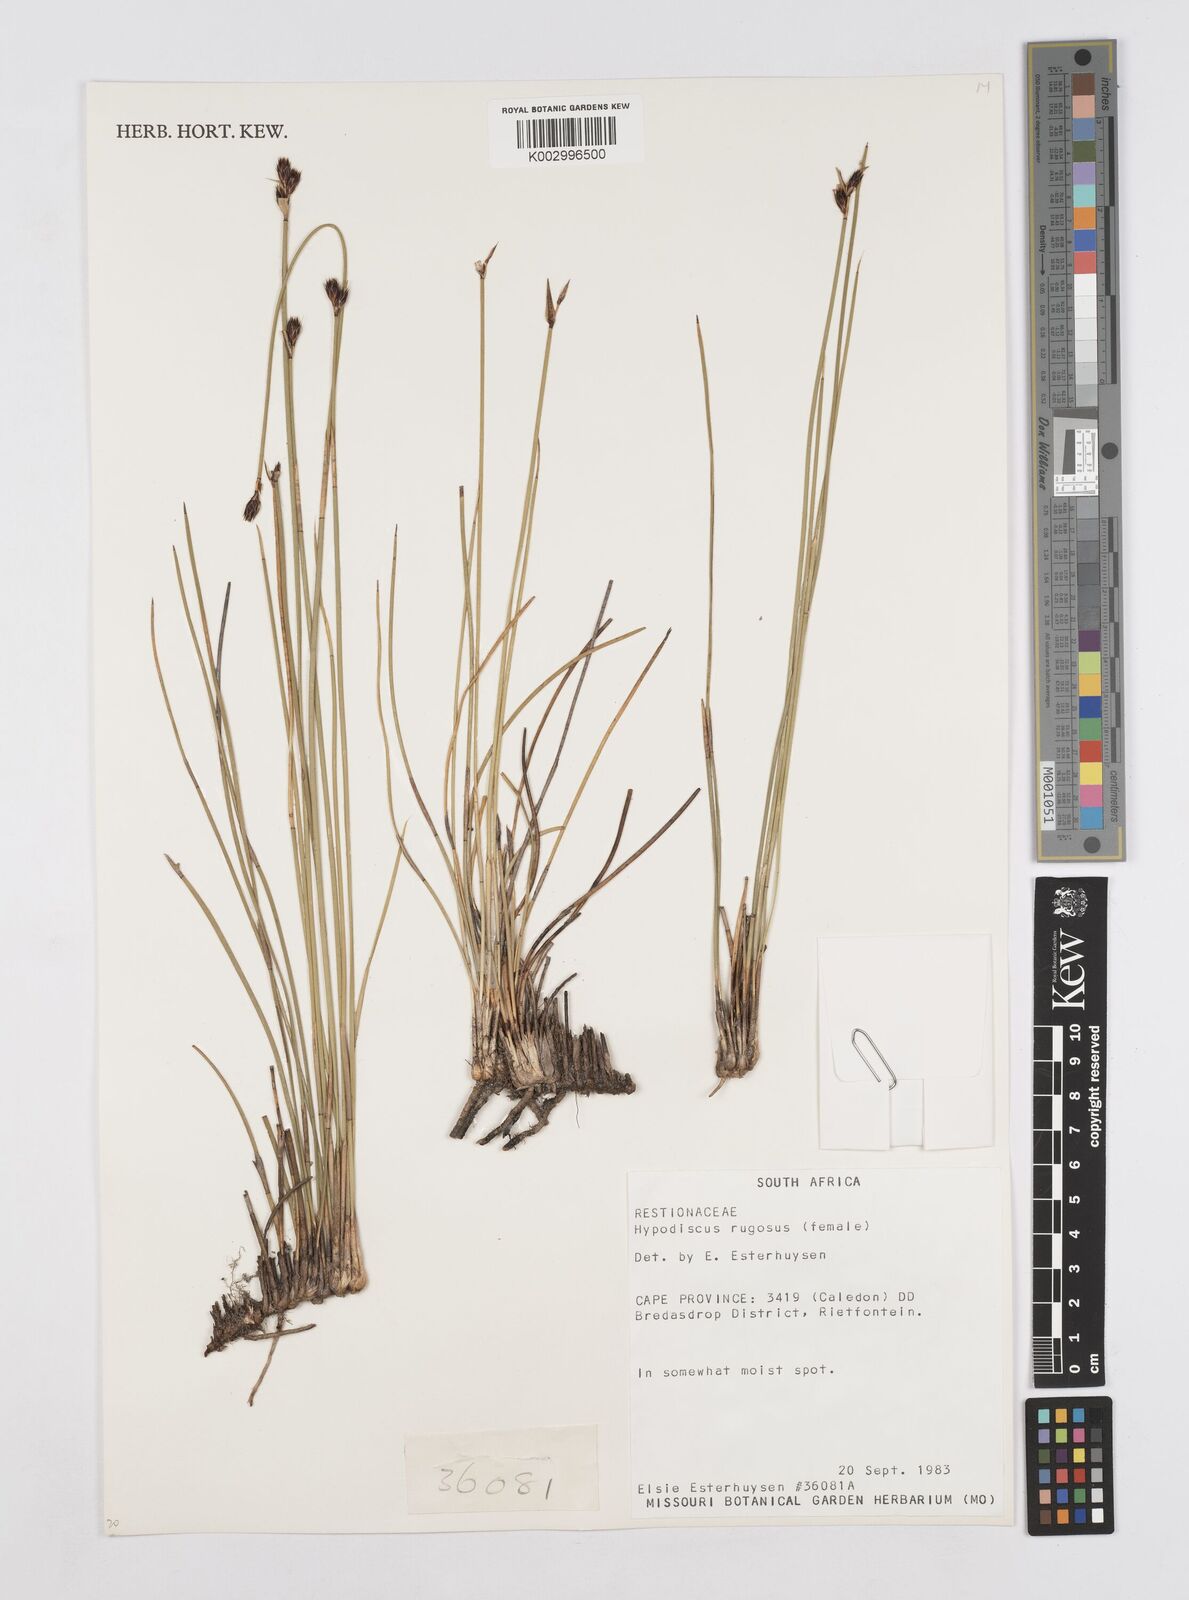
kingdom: Plantae
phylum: Tracheophyta
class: Liliopsida
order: Poales
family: Restionaceae
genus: Hypodiscus
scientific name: Hypodiscus rugosus
